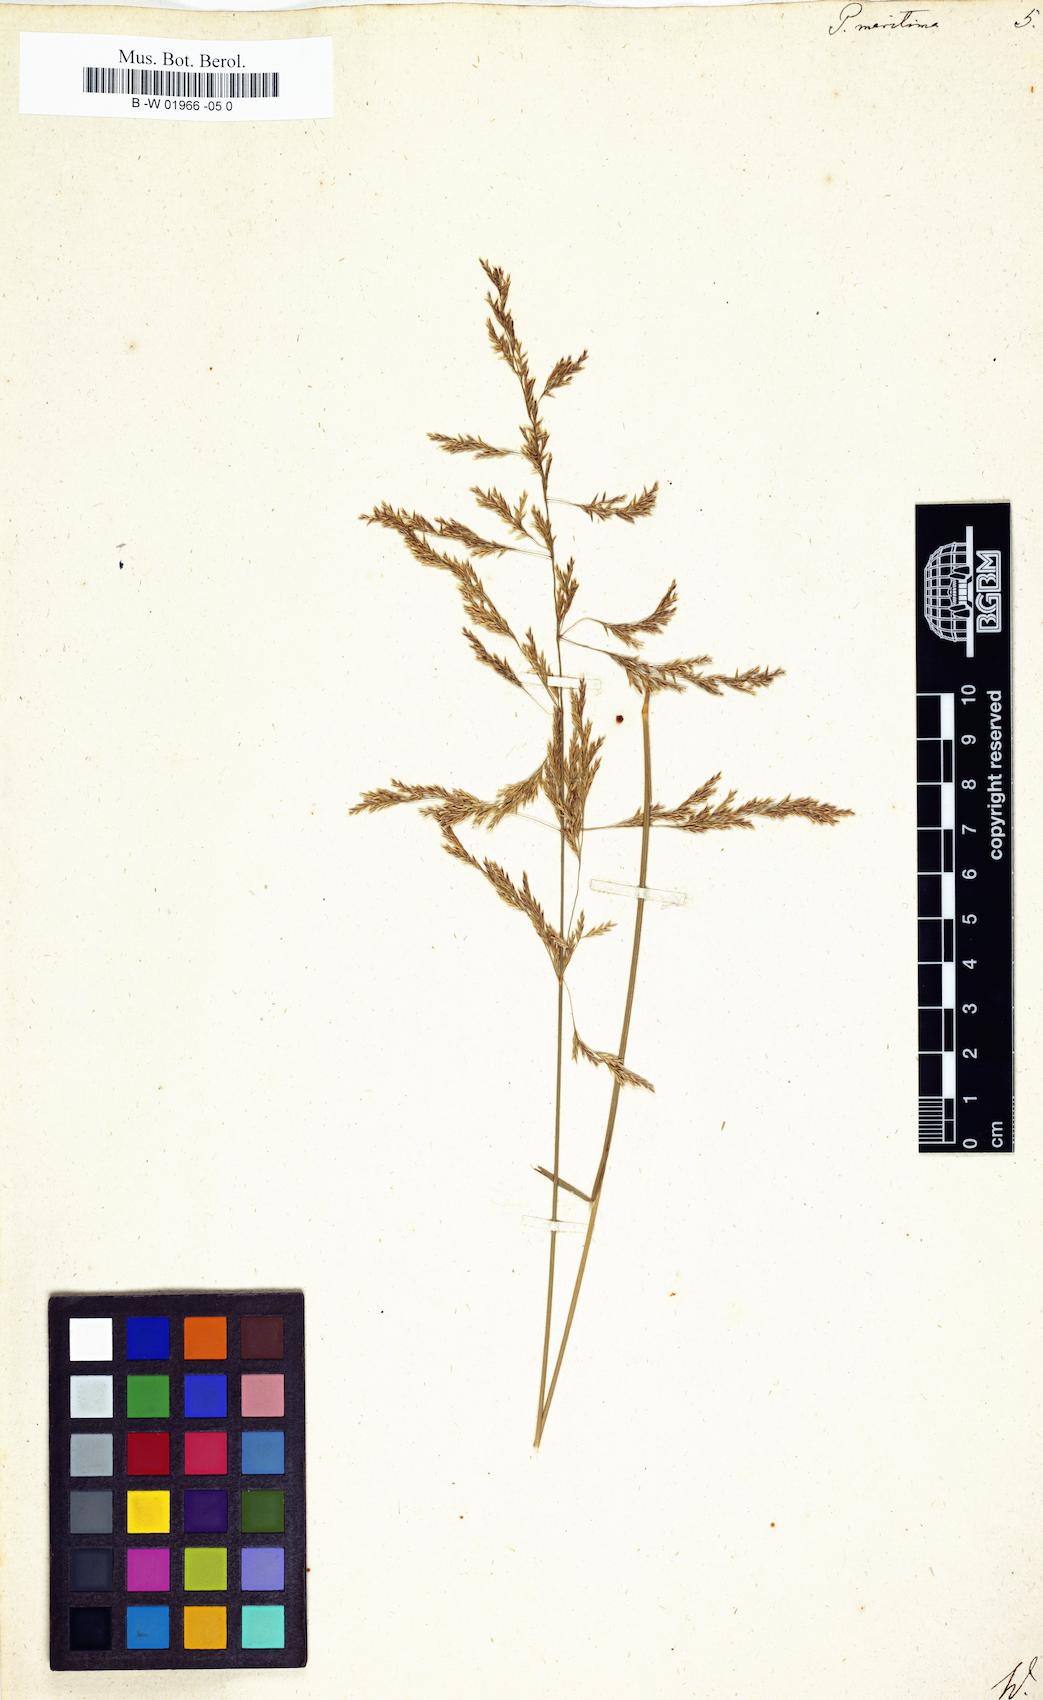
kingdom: Plantae
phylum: Tracheophyta
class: Liliopsida
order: Poales
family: Poaceae
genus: Poa
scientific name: Poa maritima
